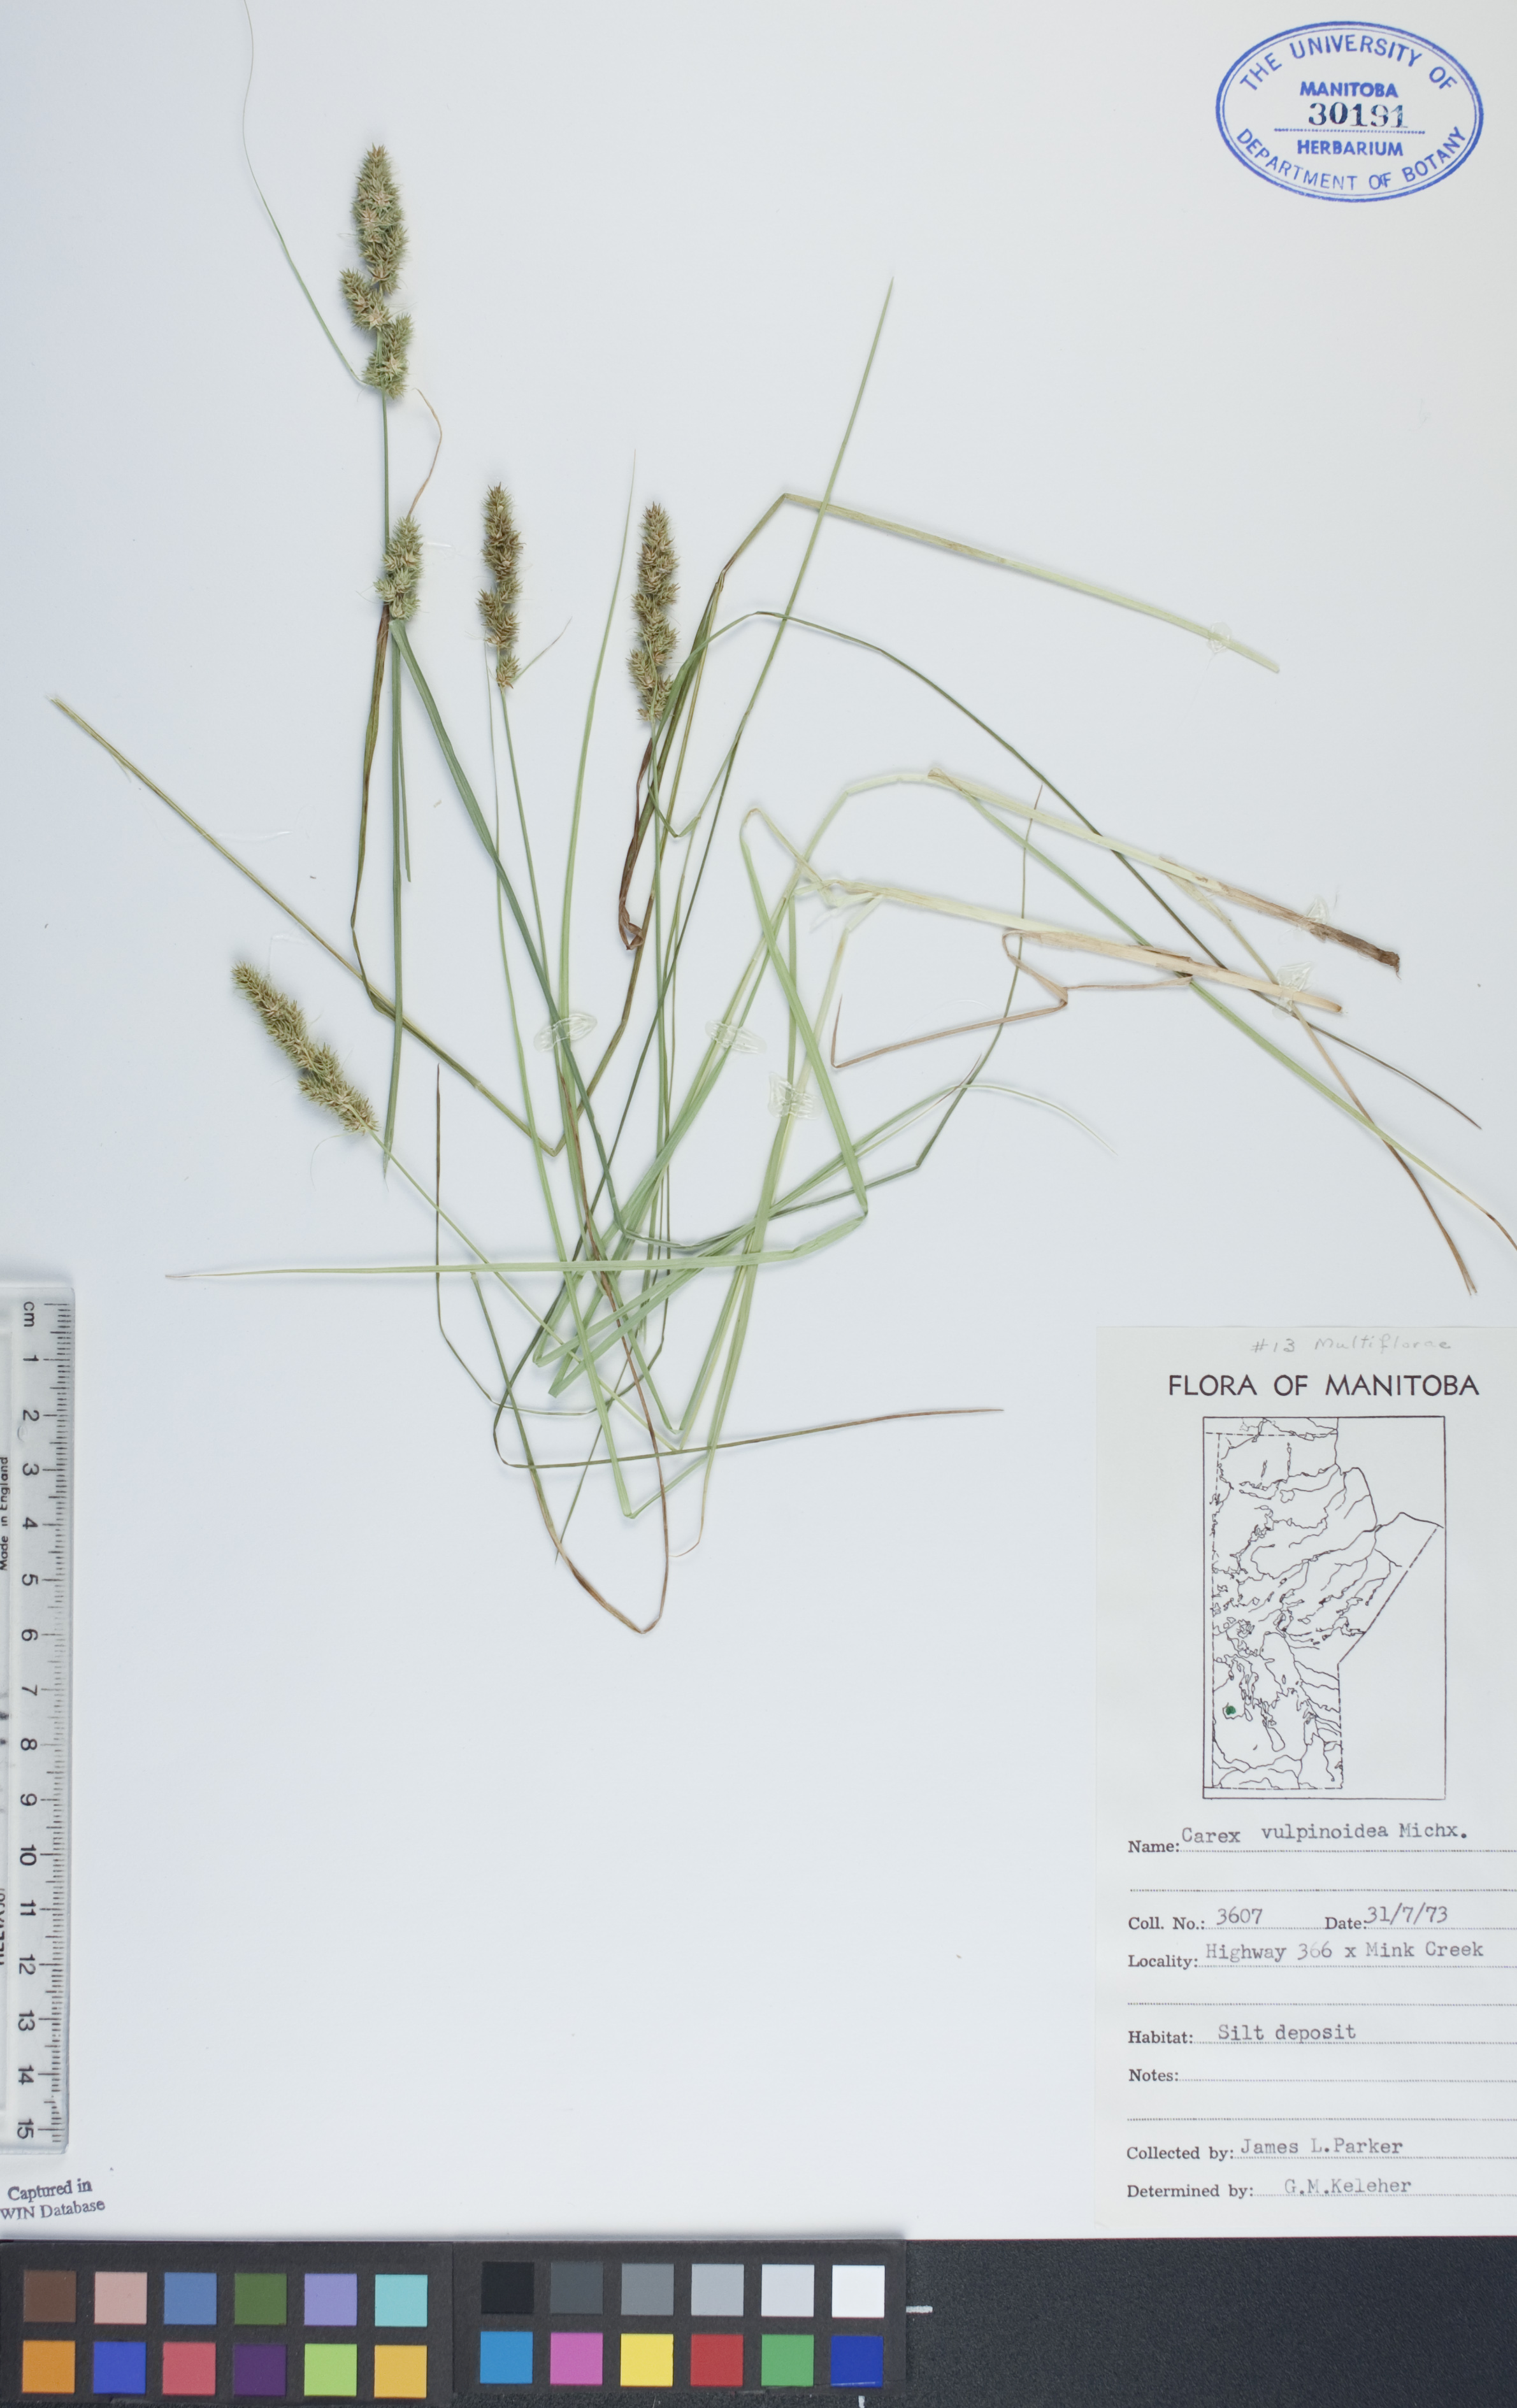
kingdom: Plantae
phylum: Tracheophyta
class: Liliopsida
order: Poales
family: Cyperaceae
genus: Carex
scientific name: Carex vulpinoidea
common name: American fox-sedge
